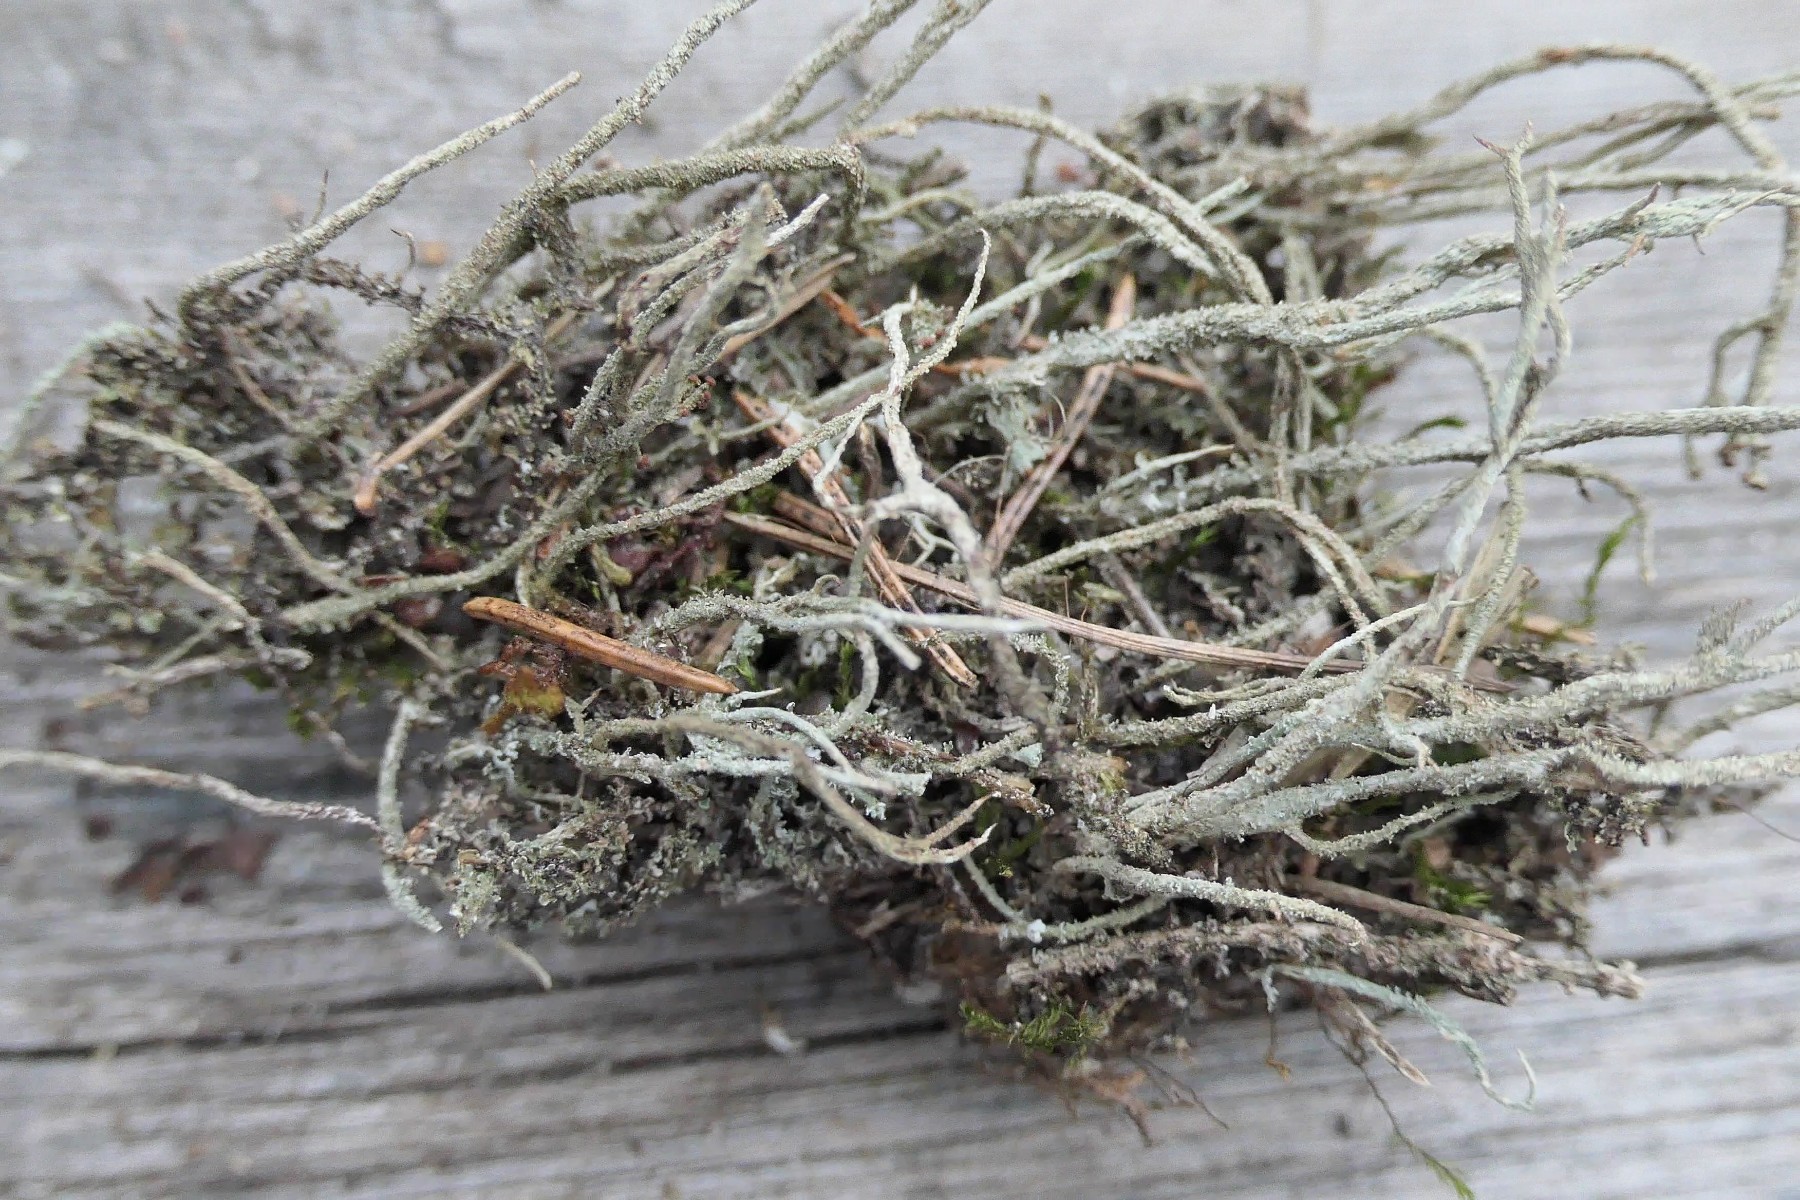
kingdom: Fungi
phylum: Ascomycota
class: Lecanoromycetes
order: Lecanorales
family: Cladoniaceae
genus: Cladonia
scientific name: Cladonia scabriuscula
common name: ru bægerlav
